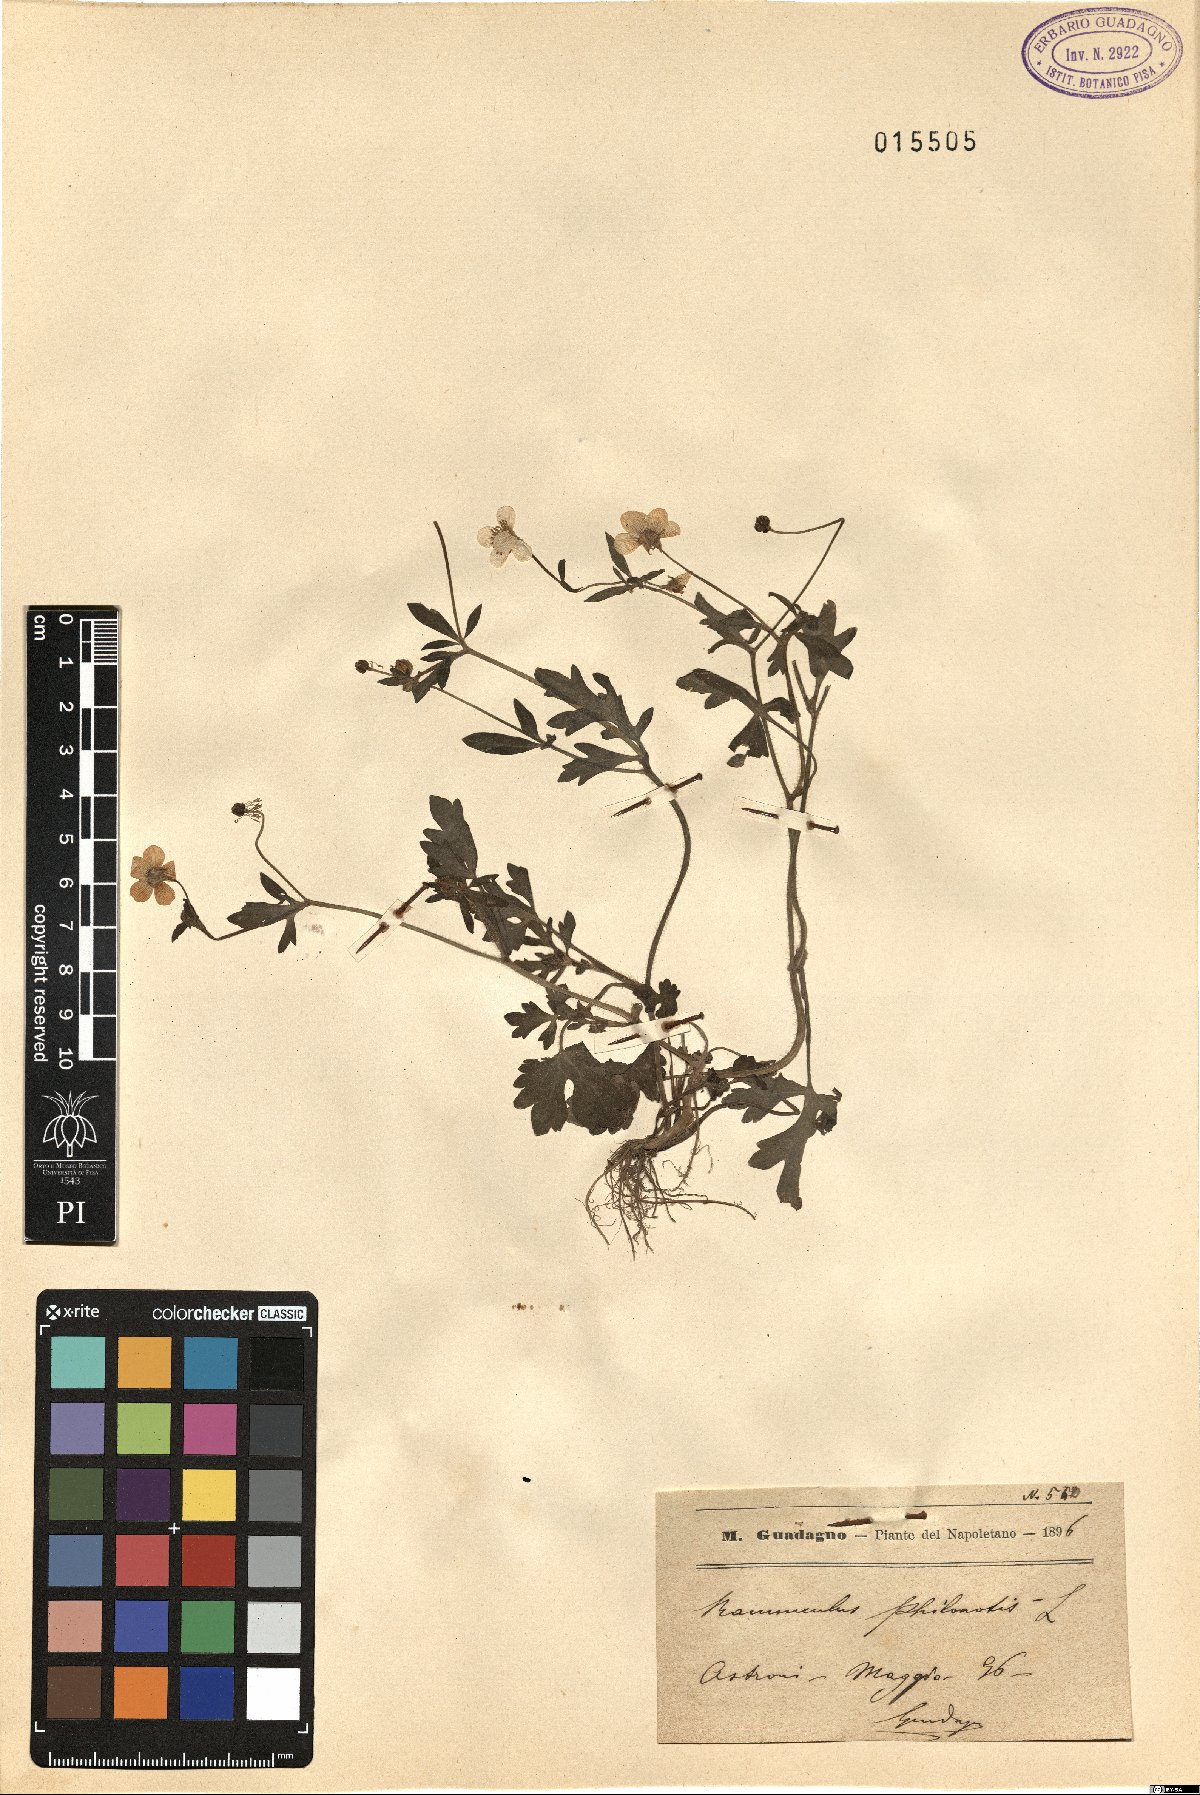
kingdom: Plantae
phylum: Tracheophyta
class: Magnoliopsida
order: Ranunculales
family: Ranunculaceae
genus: Ranunculus
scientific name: Ranunculus sardous
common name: Hairy buttercup
